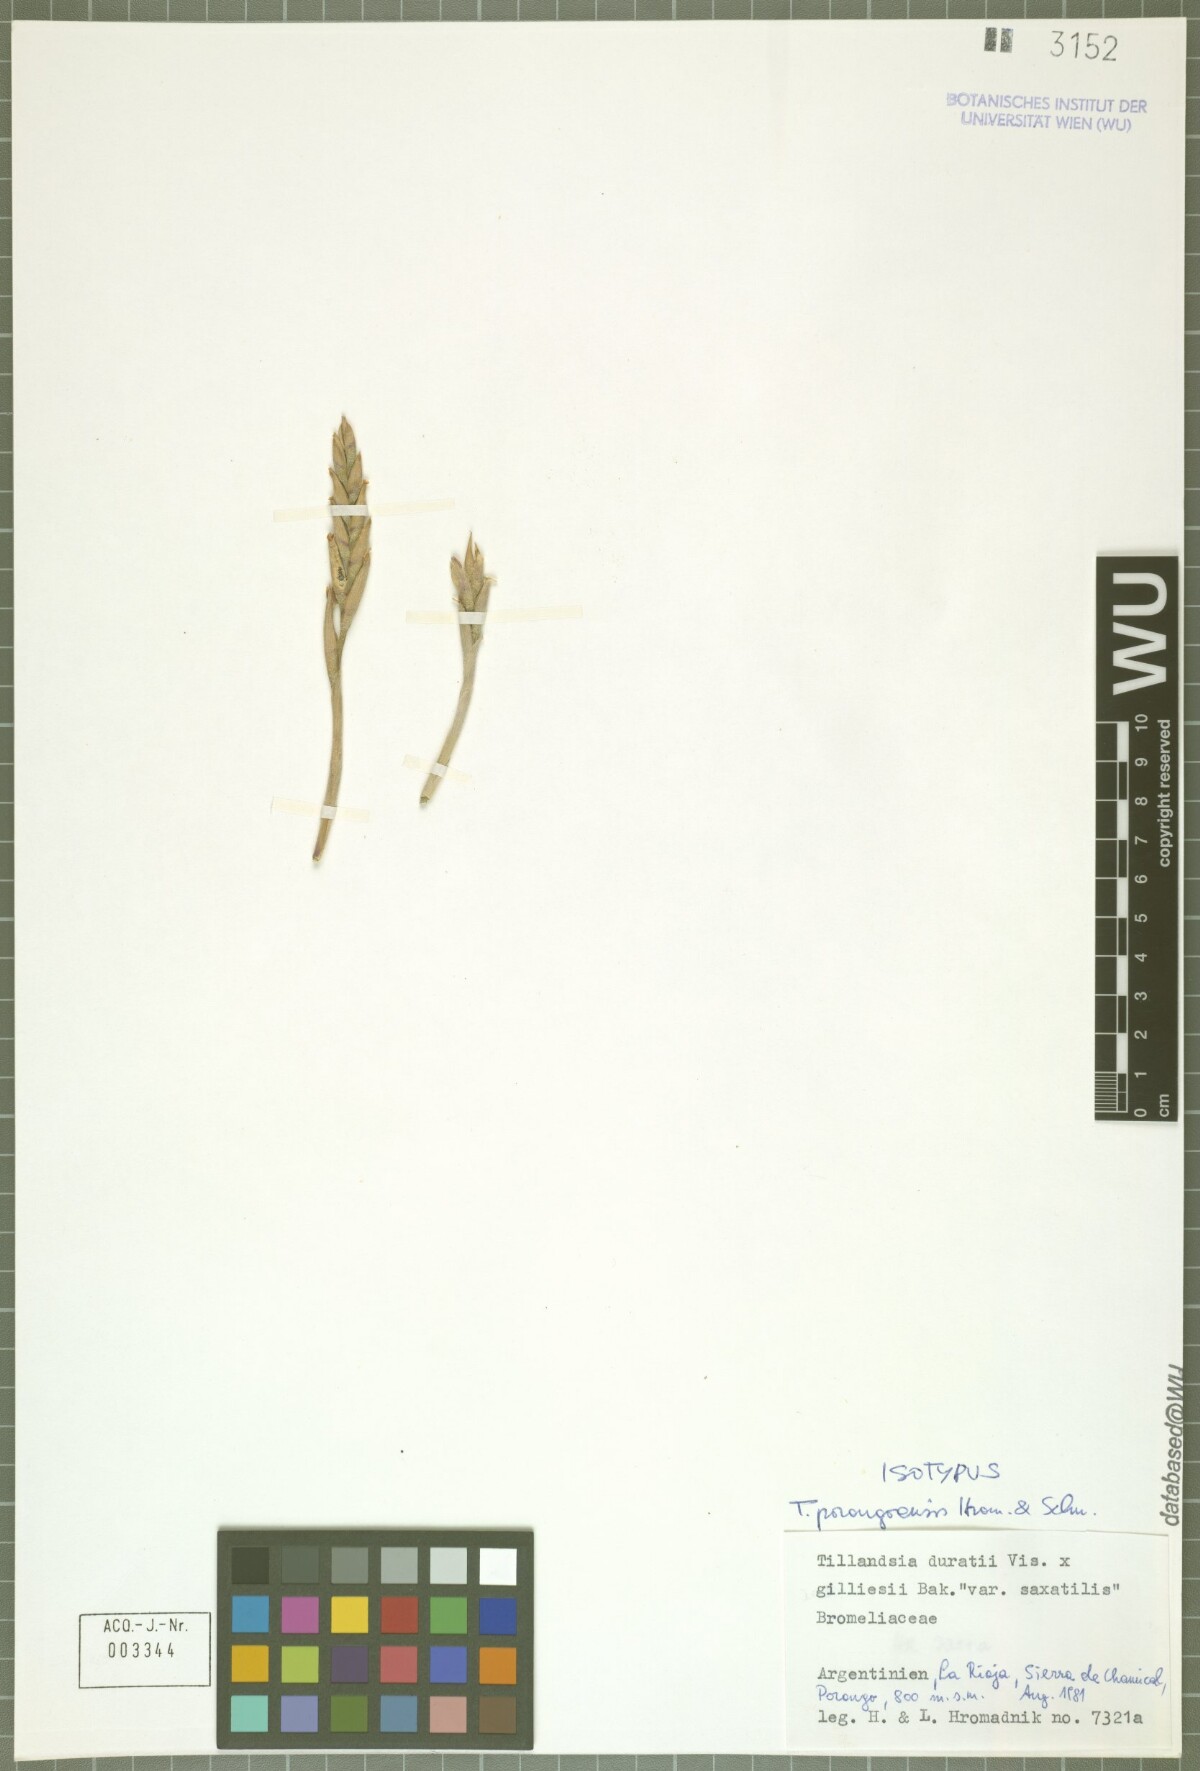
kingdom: Plantae
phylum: Tracheophyta
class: Liliopsida
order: Poales
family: Bromeliaceae
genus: Tillandsia
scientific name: Tillandsia porongoensis
